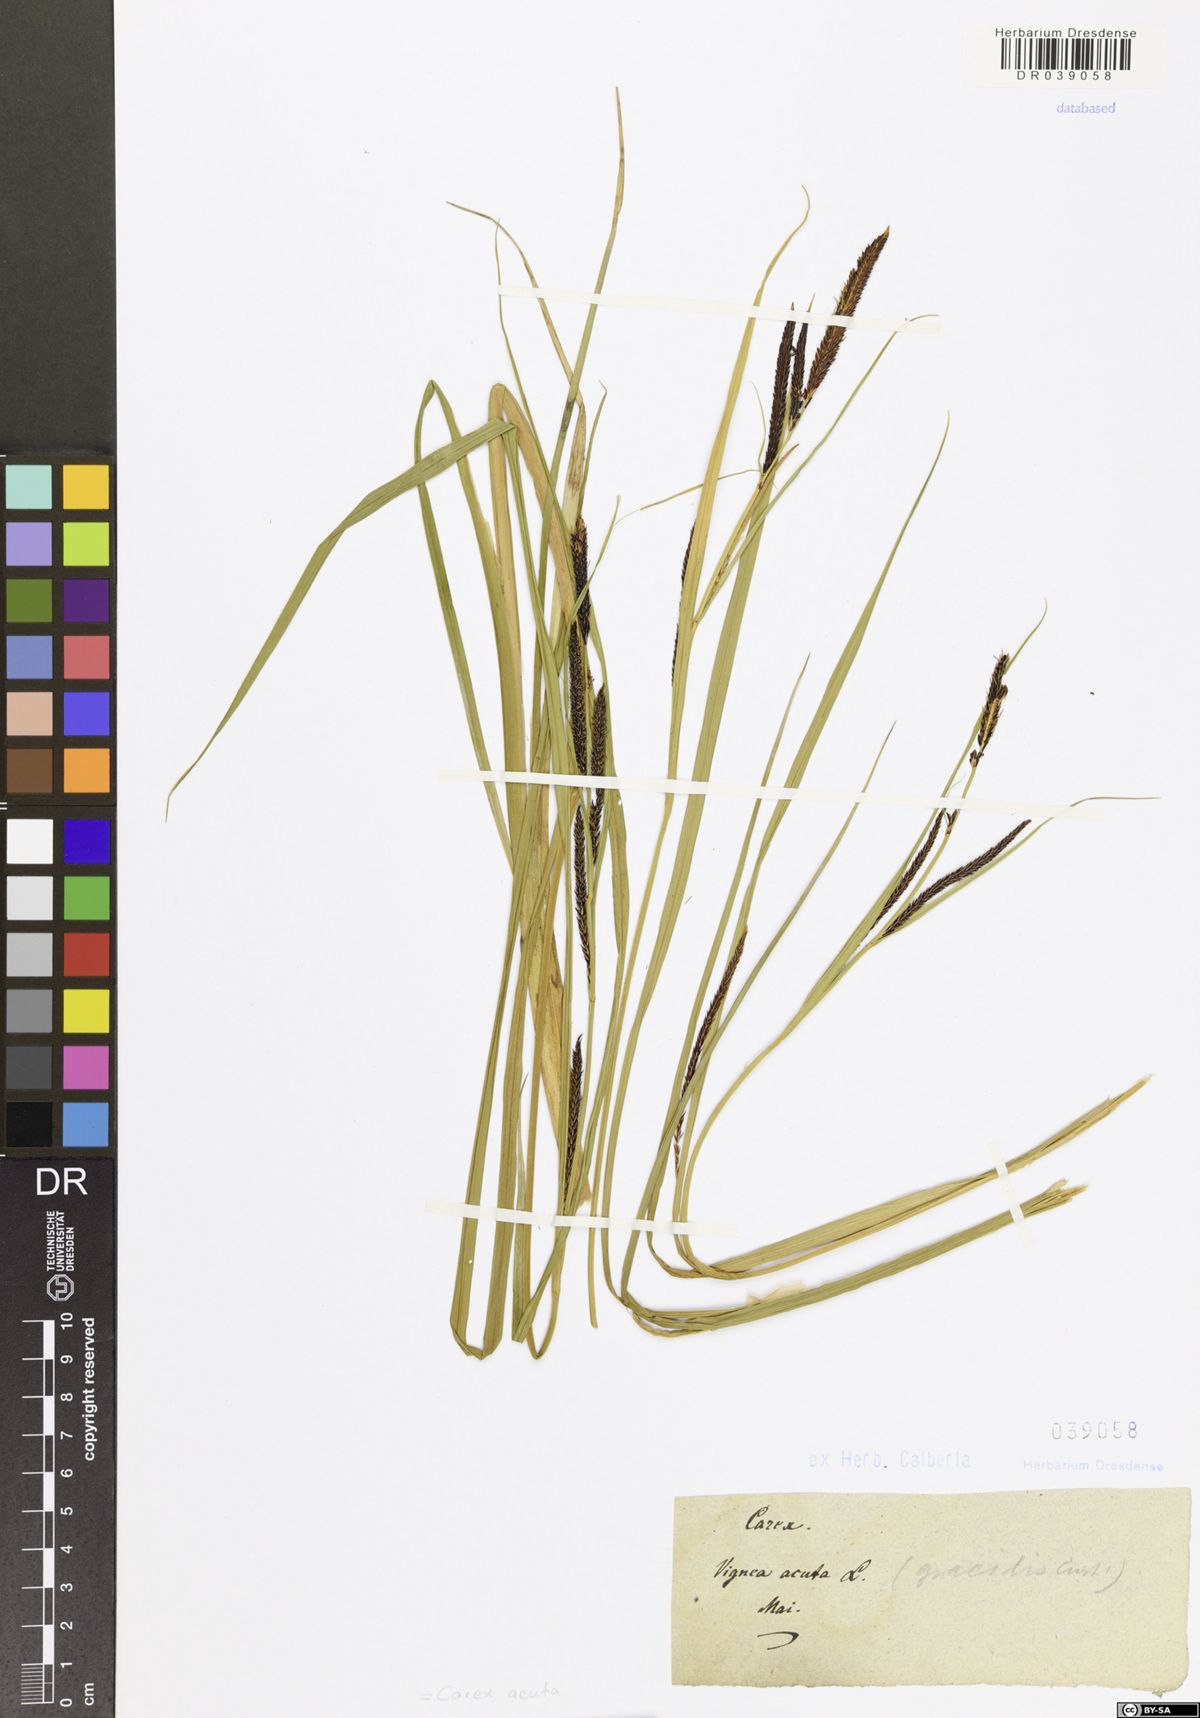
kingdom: Plantae
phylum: Tracheophyta
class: Liliopsida
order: Poales
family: Cyperaceae
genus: Carex
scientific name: Carex acuta
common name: Slender tufted-sedge
